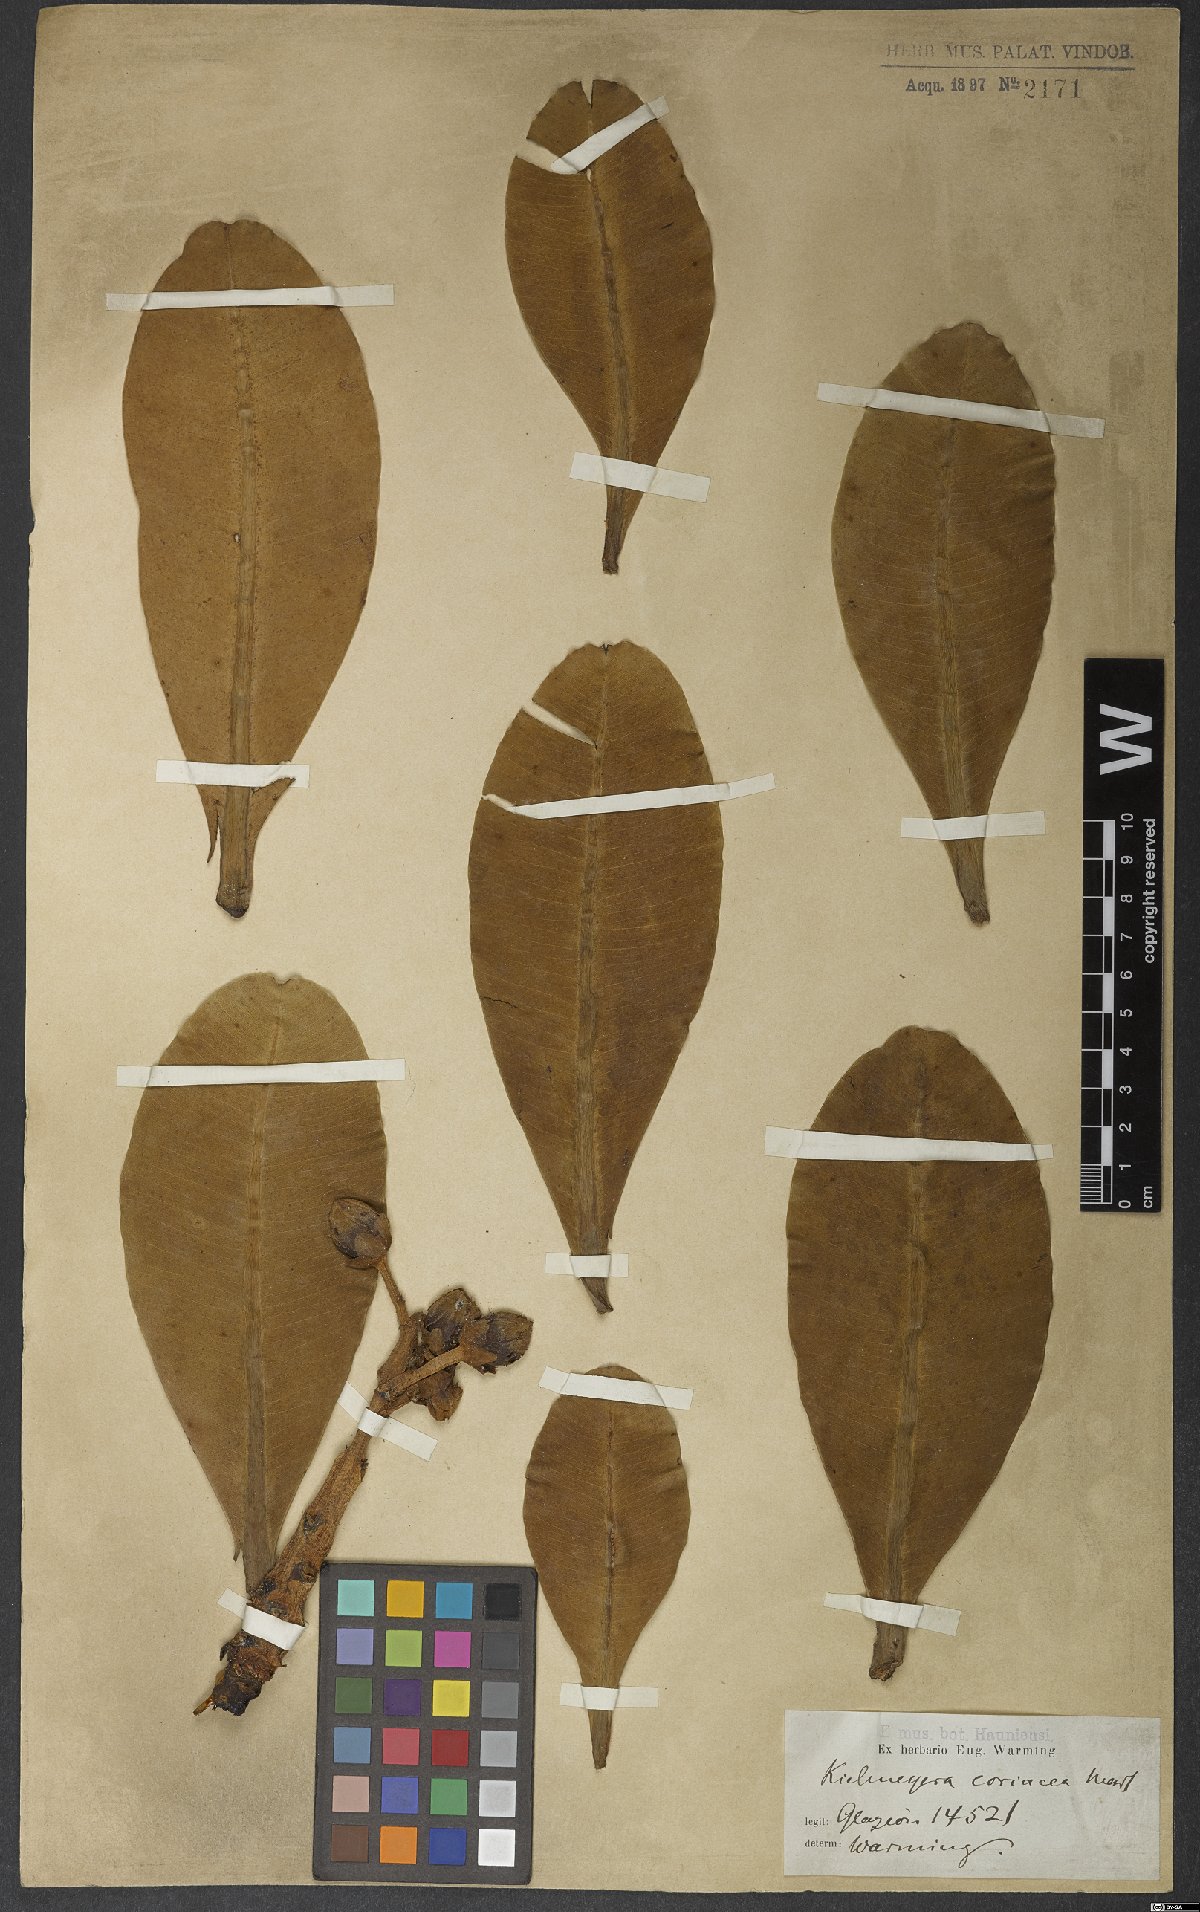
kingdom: Plantae
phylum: Tracheophyta
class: Magnoliopsida
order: Malpighiales
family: Calophyllaceae
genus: Kielmeyera
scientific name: Kielmeyera coriacea
